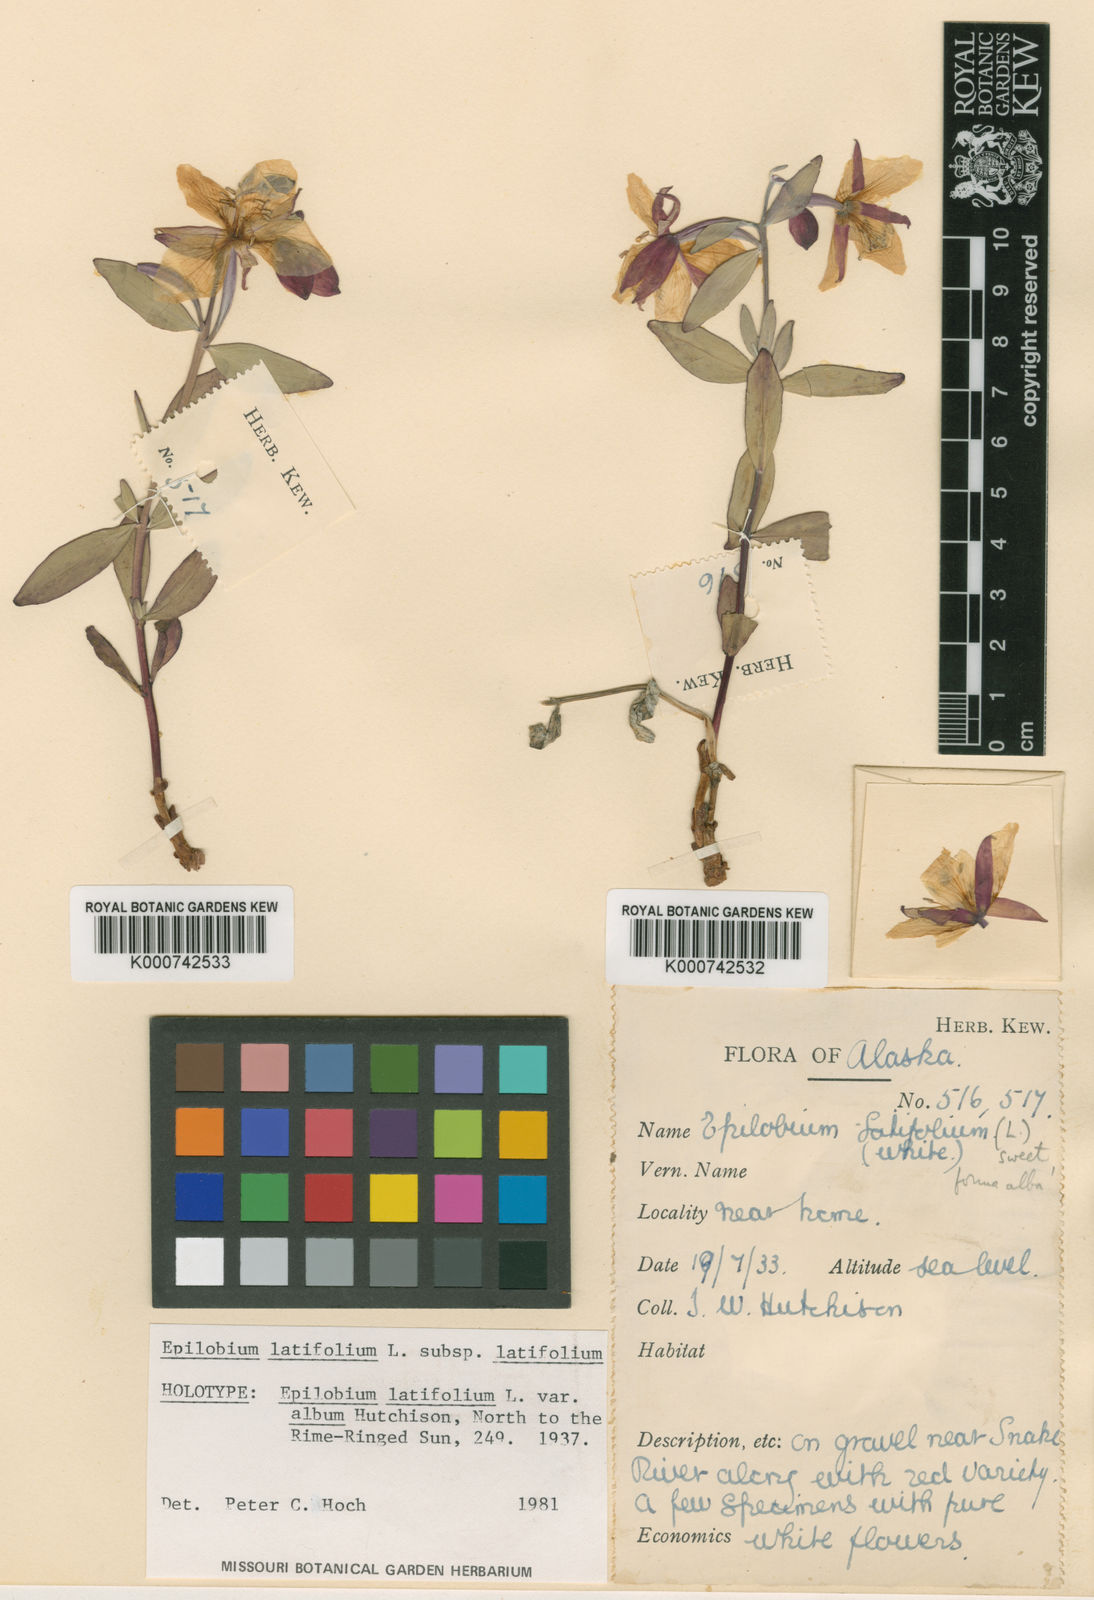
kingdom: Plantae
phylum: Tracheophyta
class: Magnoliopsida
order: Myrtales
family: Onagraceae
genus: Chamaenerion
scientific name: Chamaenerion latifolium
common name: Dwarf fireweed
